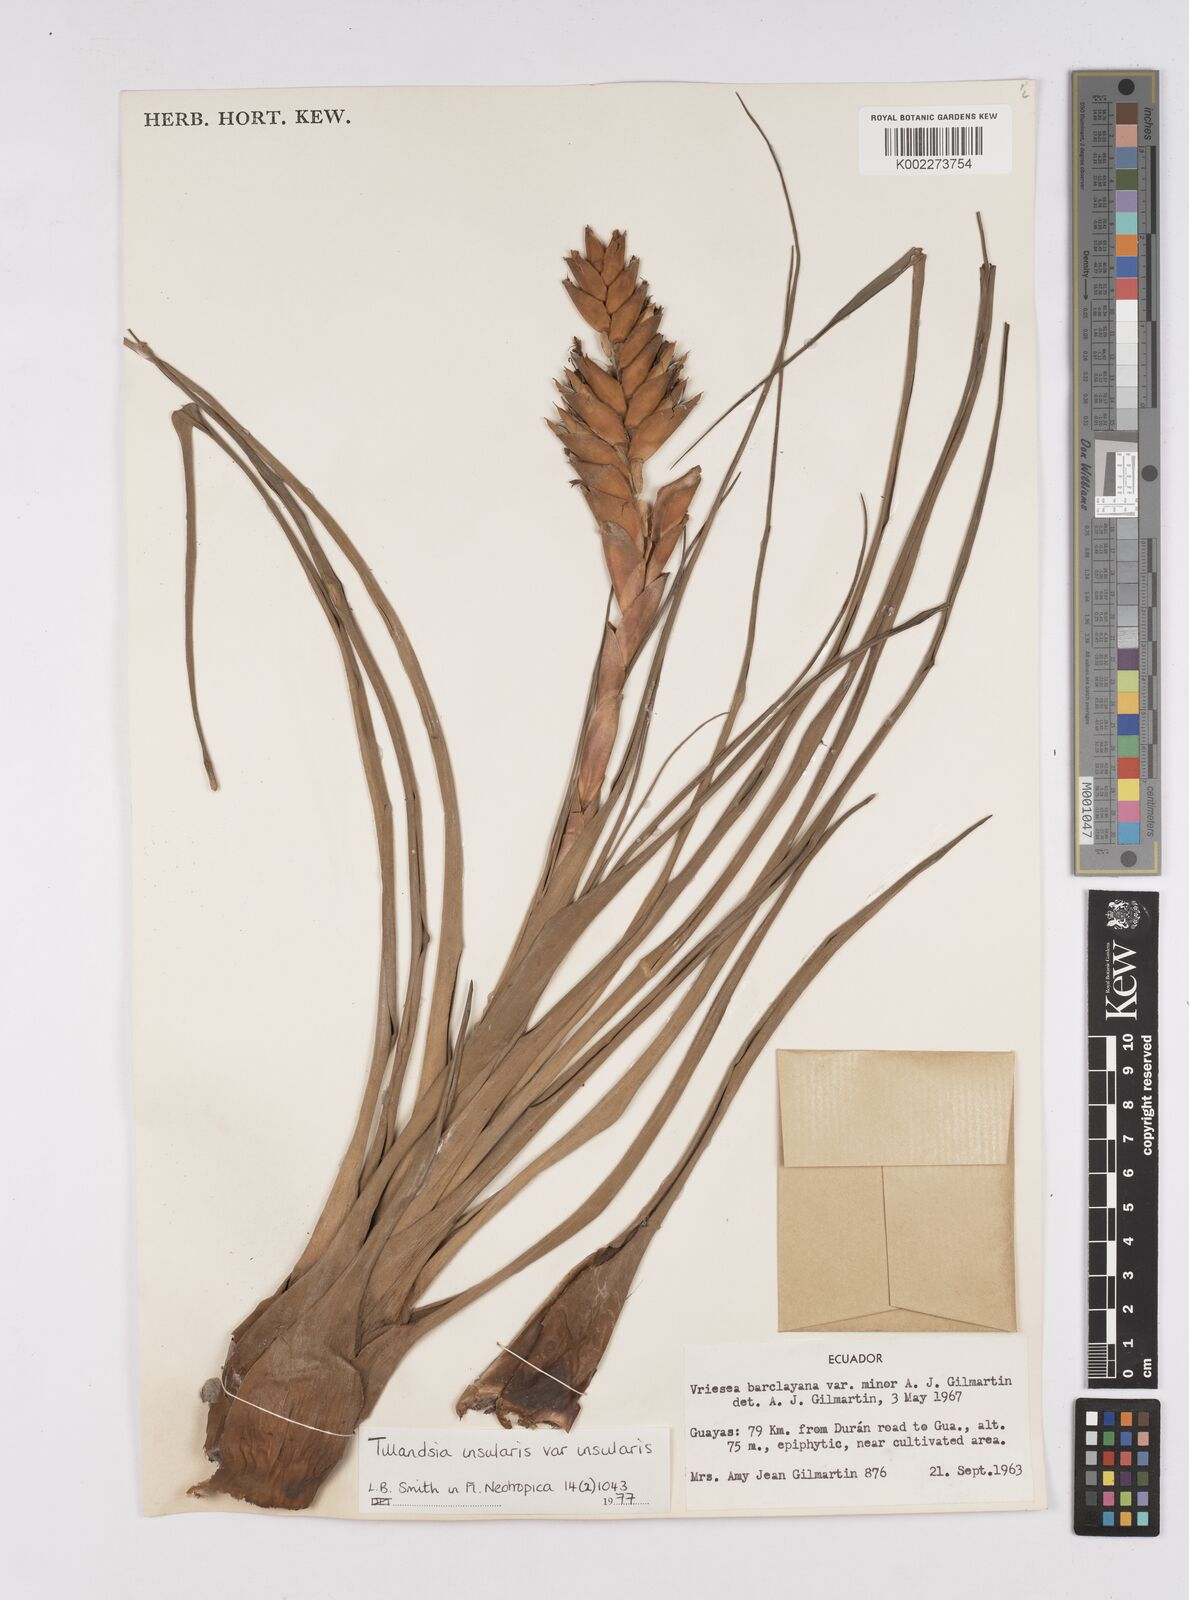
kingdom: Plantae
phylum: Tracheophyta
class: Liliopsida
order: Poales
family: Bromeliaceae
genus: Racinaea
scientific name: Racinaea insularis
